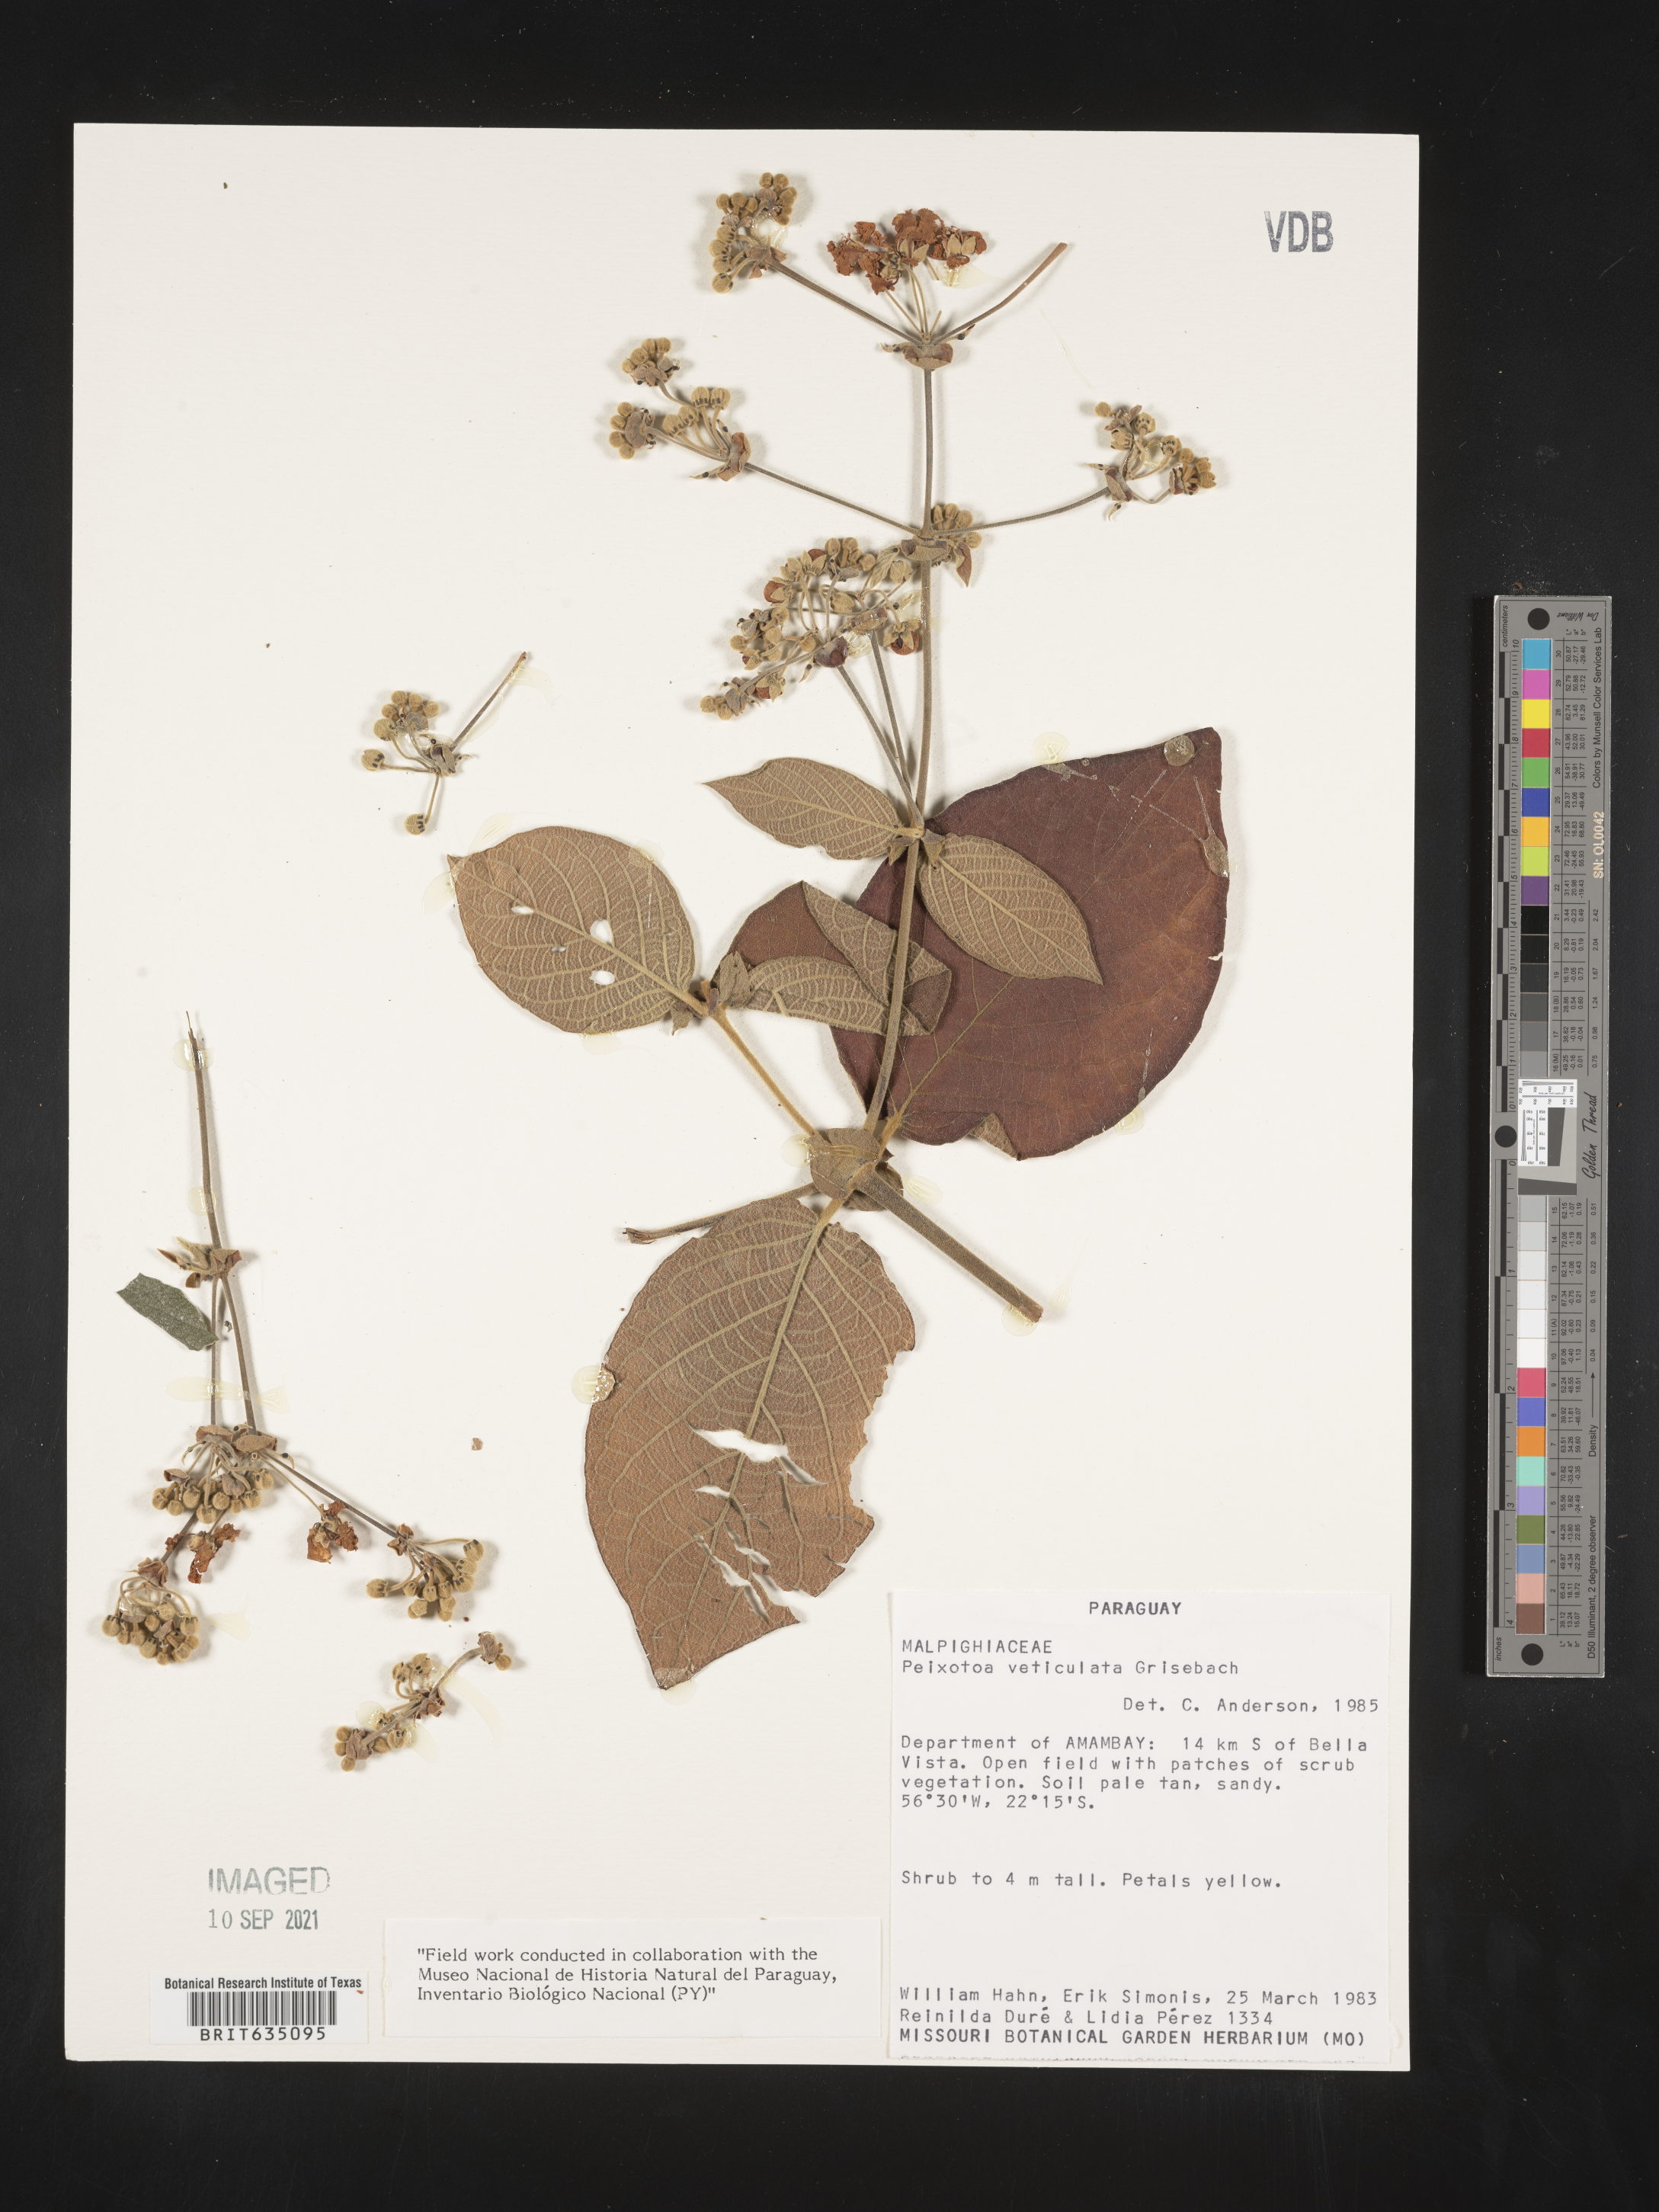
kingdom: Plantae
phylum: Tracheophyta
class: Magnoliopsida
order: Malpighiales
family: Malpighiaceae
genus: Peixotoa
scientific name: Peixotoa
